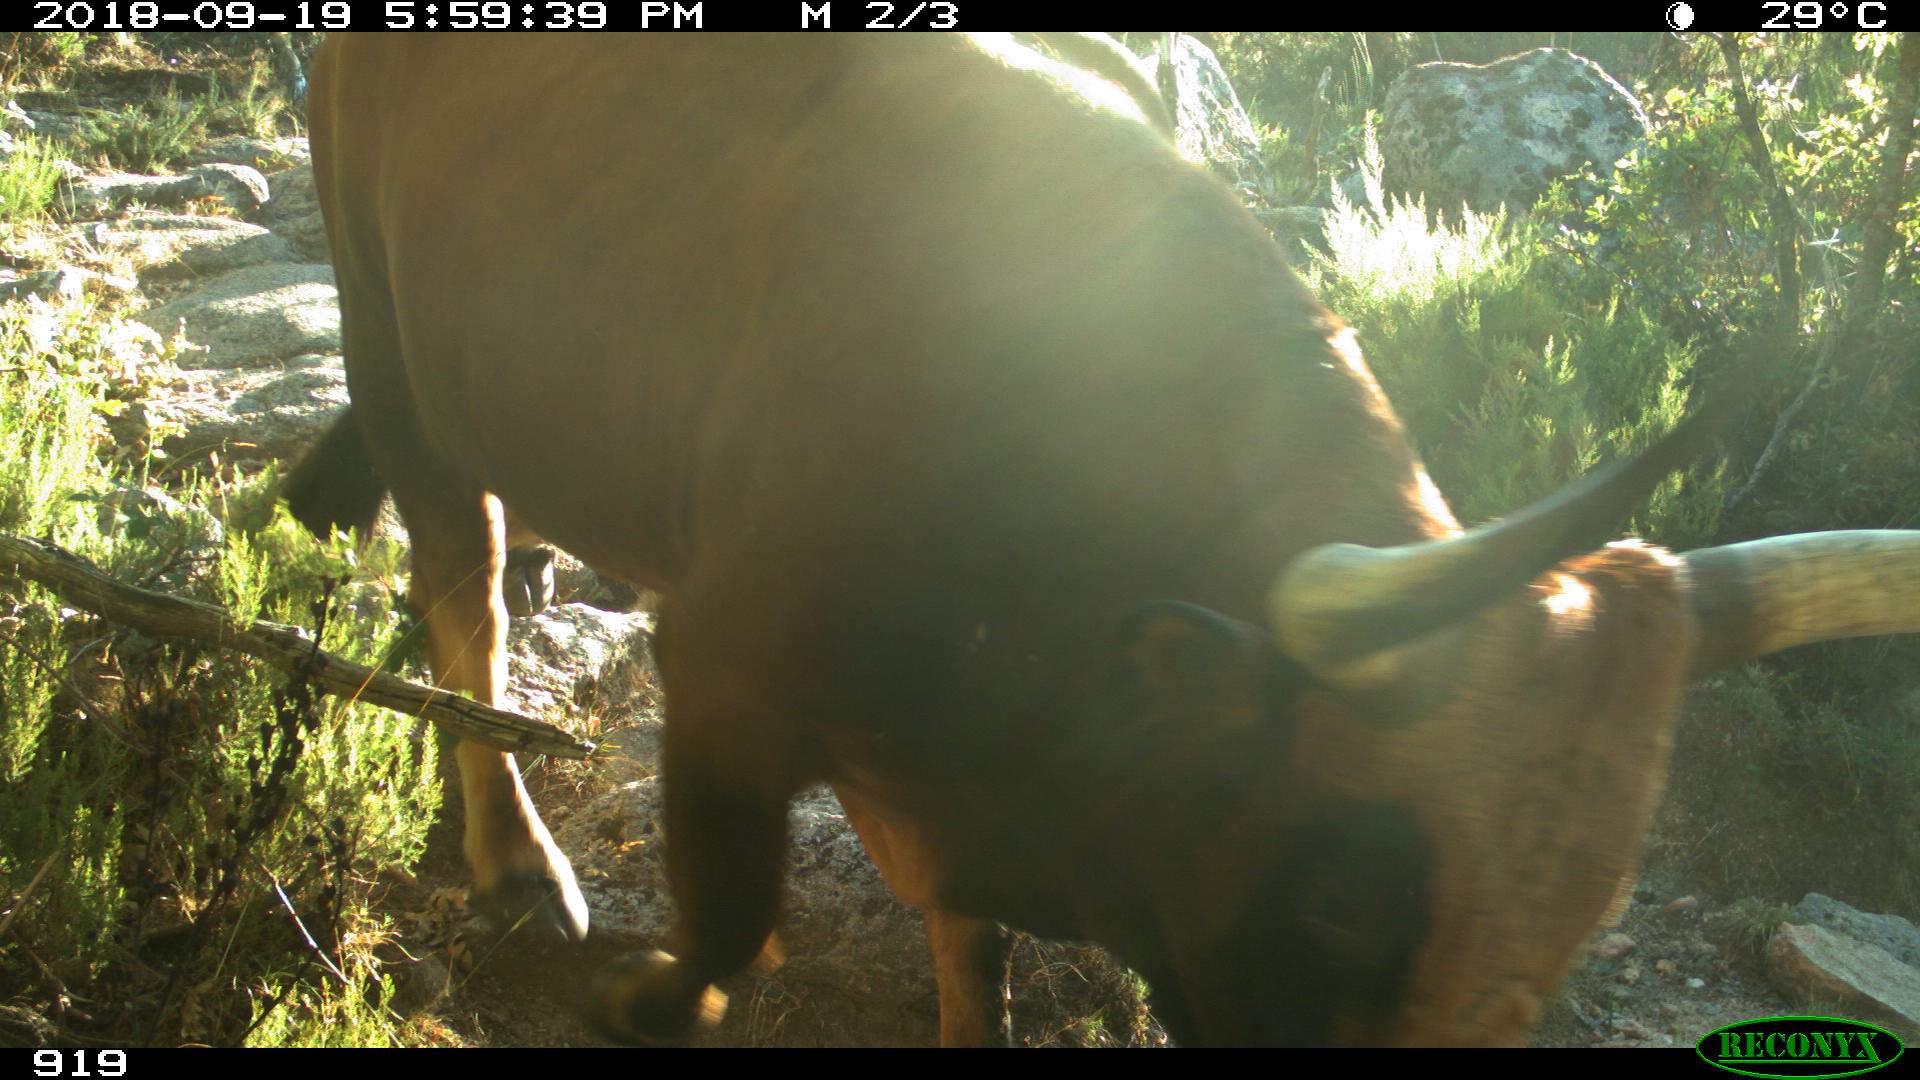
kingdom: Animalia
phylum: Chordata
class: Mammalia
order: Artiodactyla
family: Bovidae
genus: Bos
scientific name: Bos taurus
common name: Domesticated cattle
